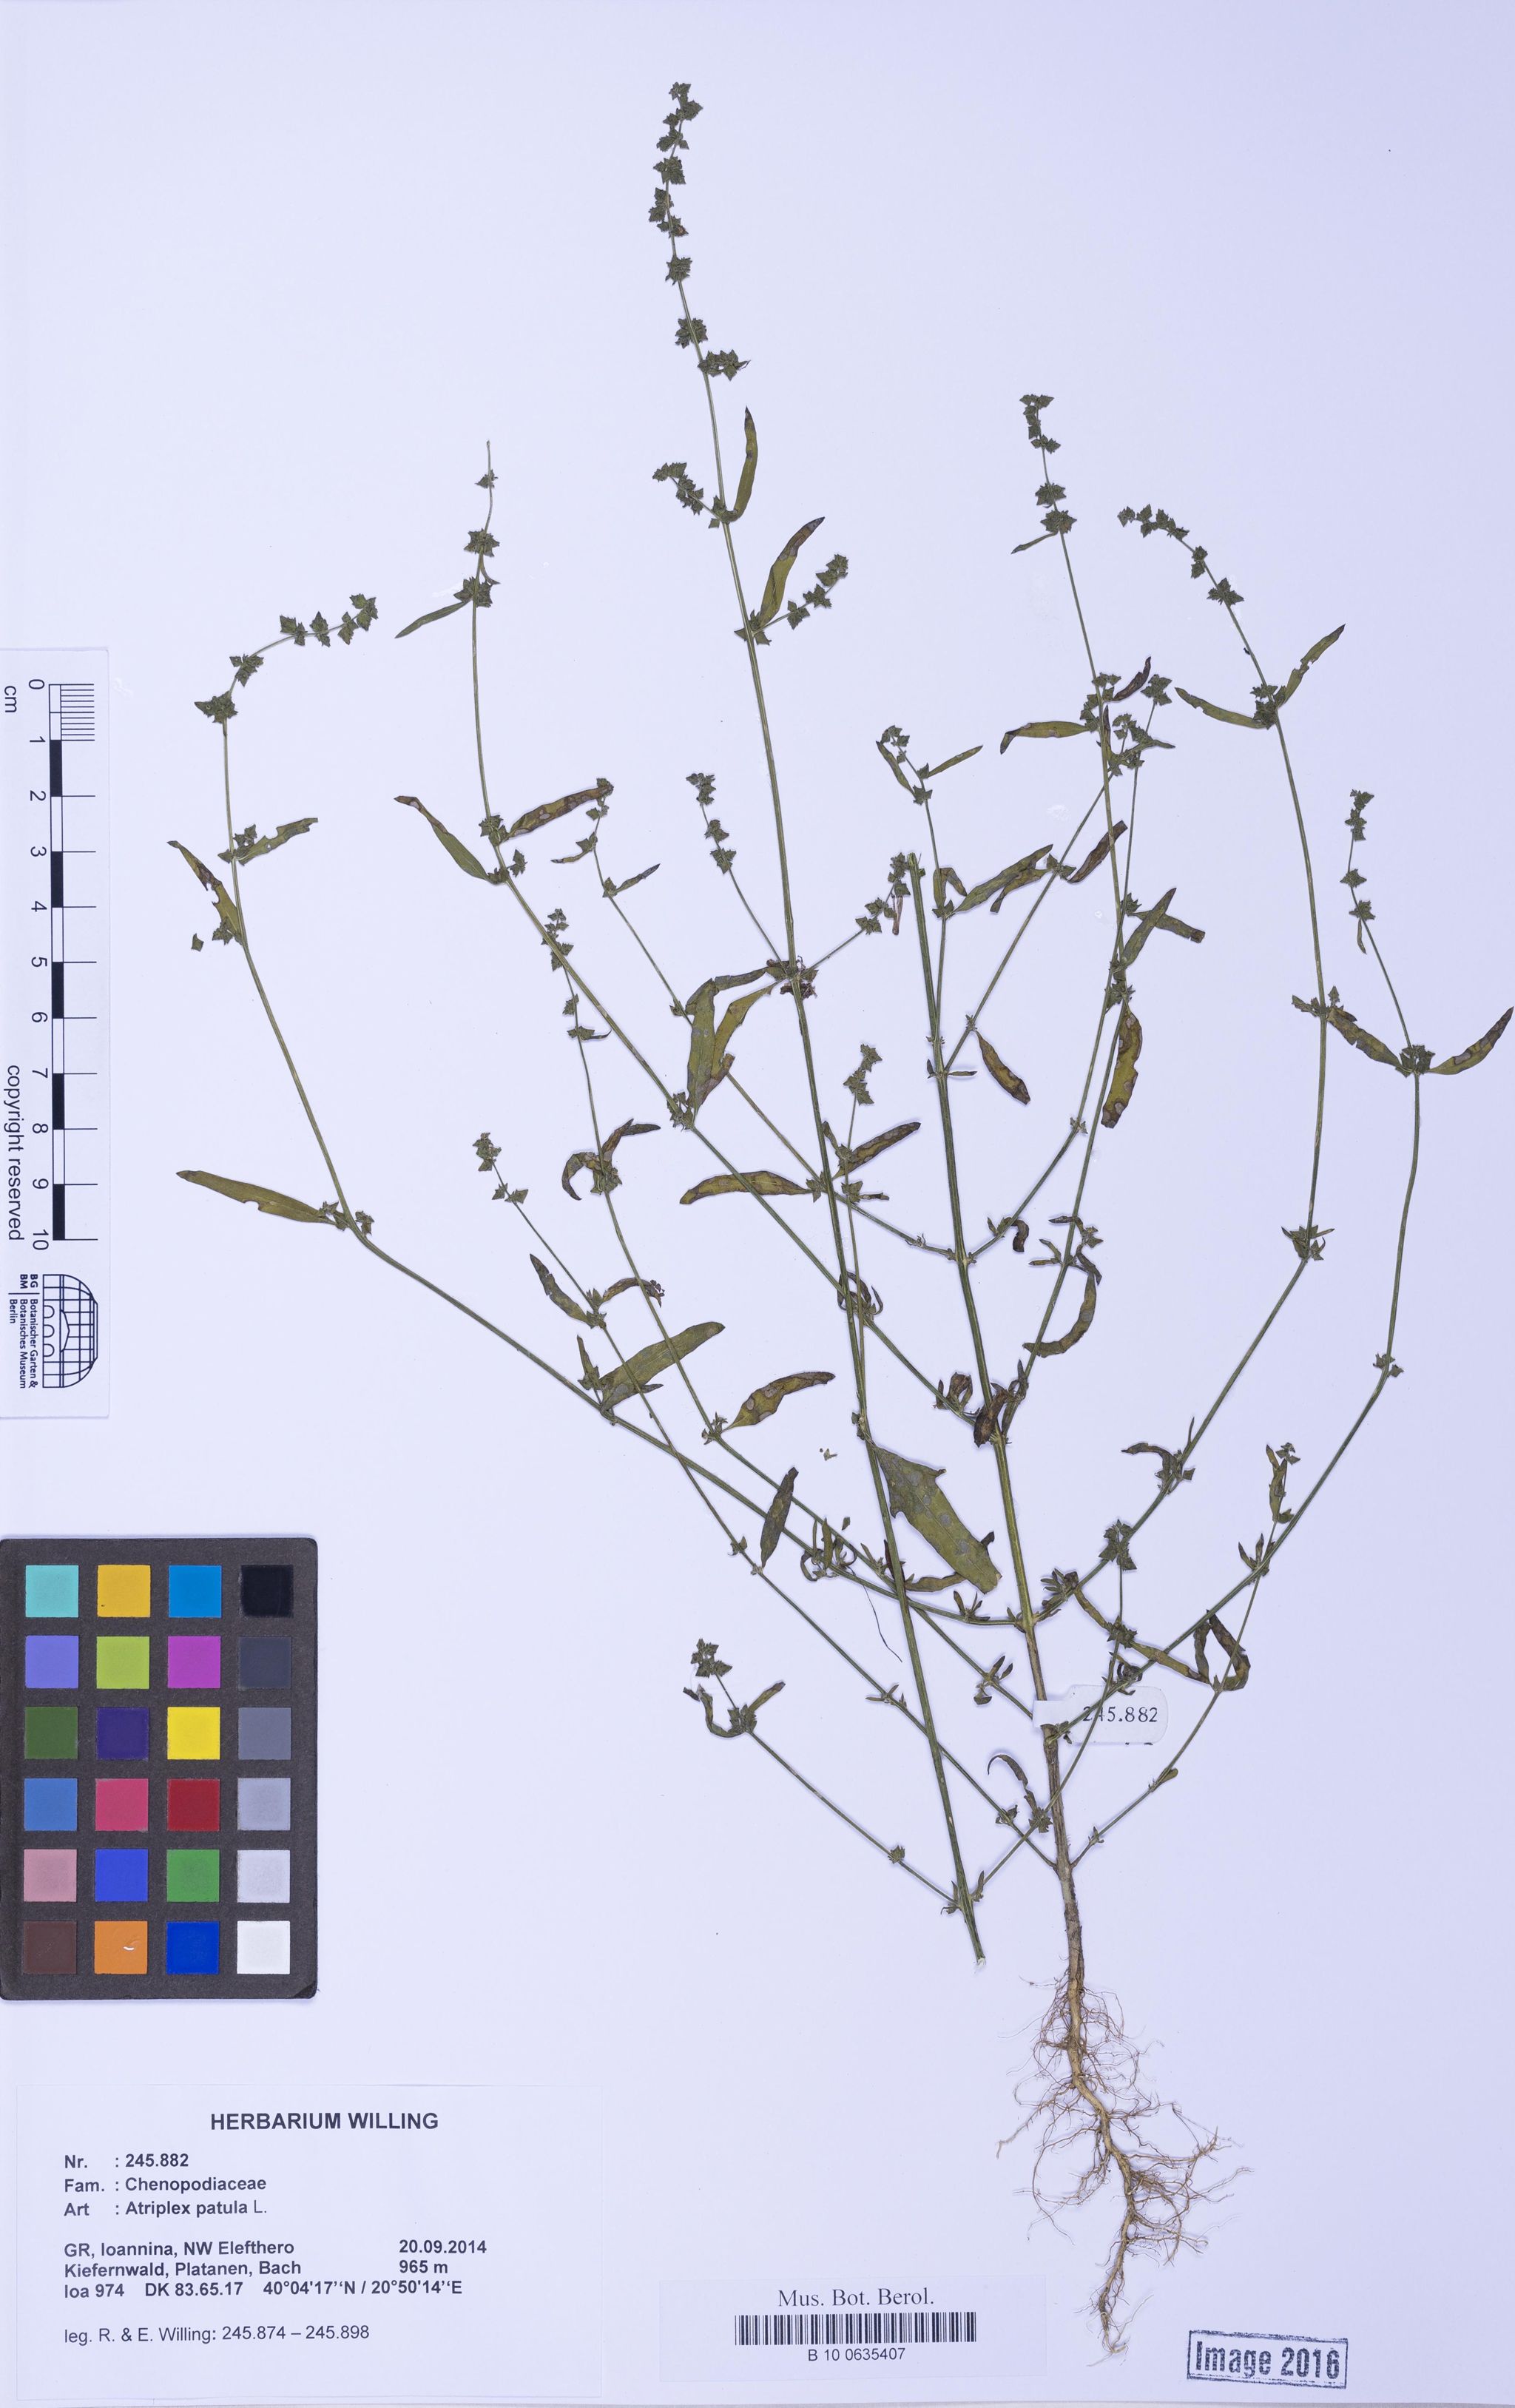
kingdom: Plantae
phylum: Tracheophyta
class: Magnoliopsida
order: Caryophyllales
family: Amaranthaceae
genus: Atriplex
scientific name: Atriplex patula
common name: Common orache
